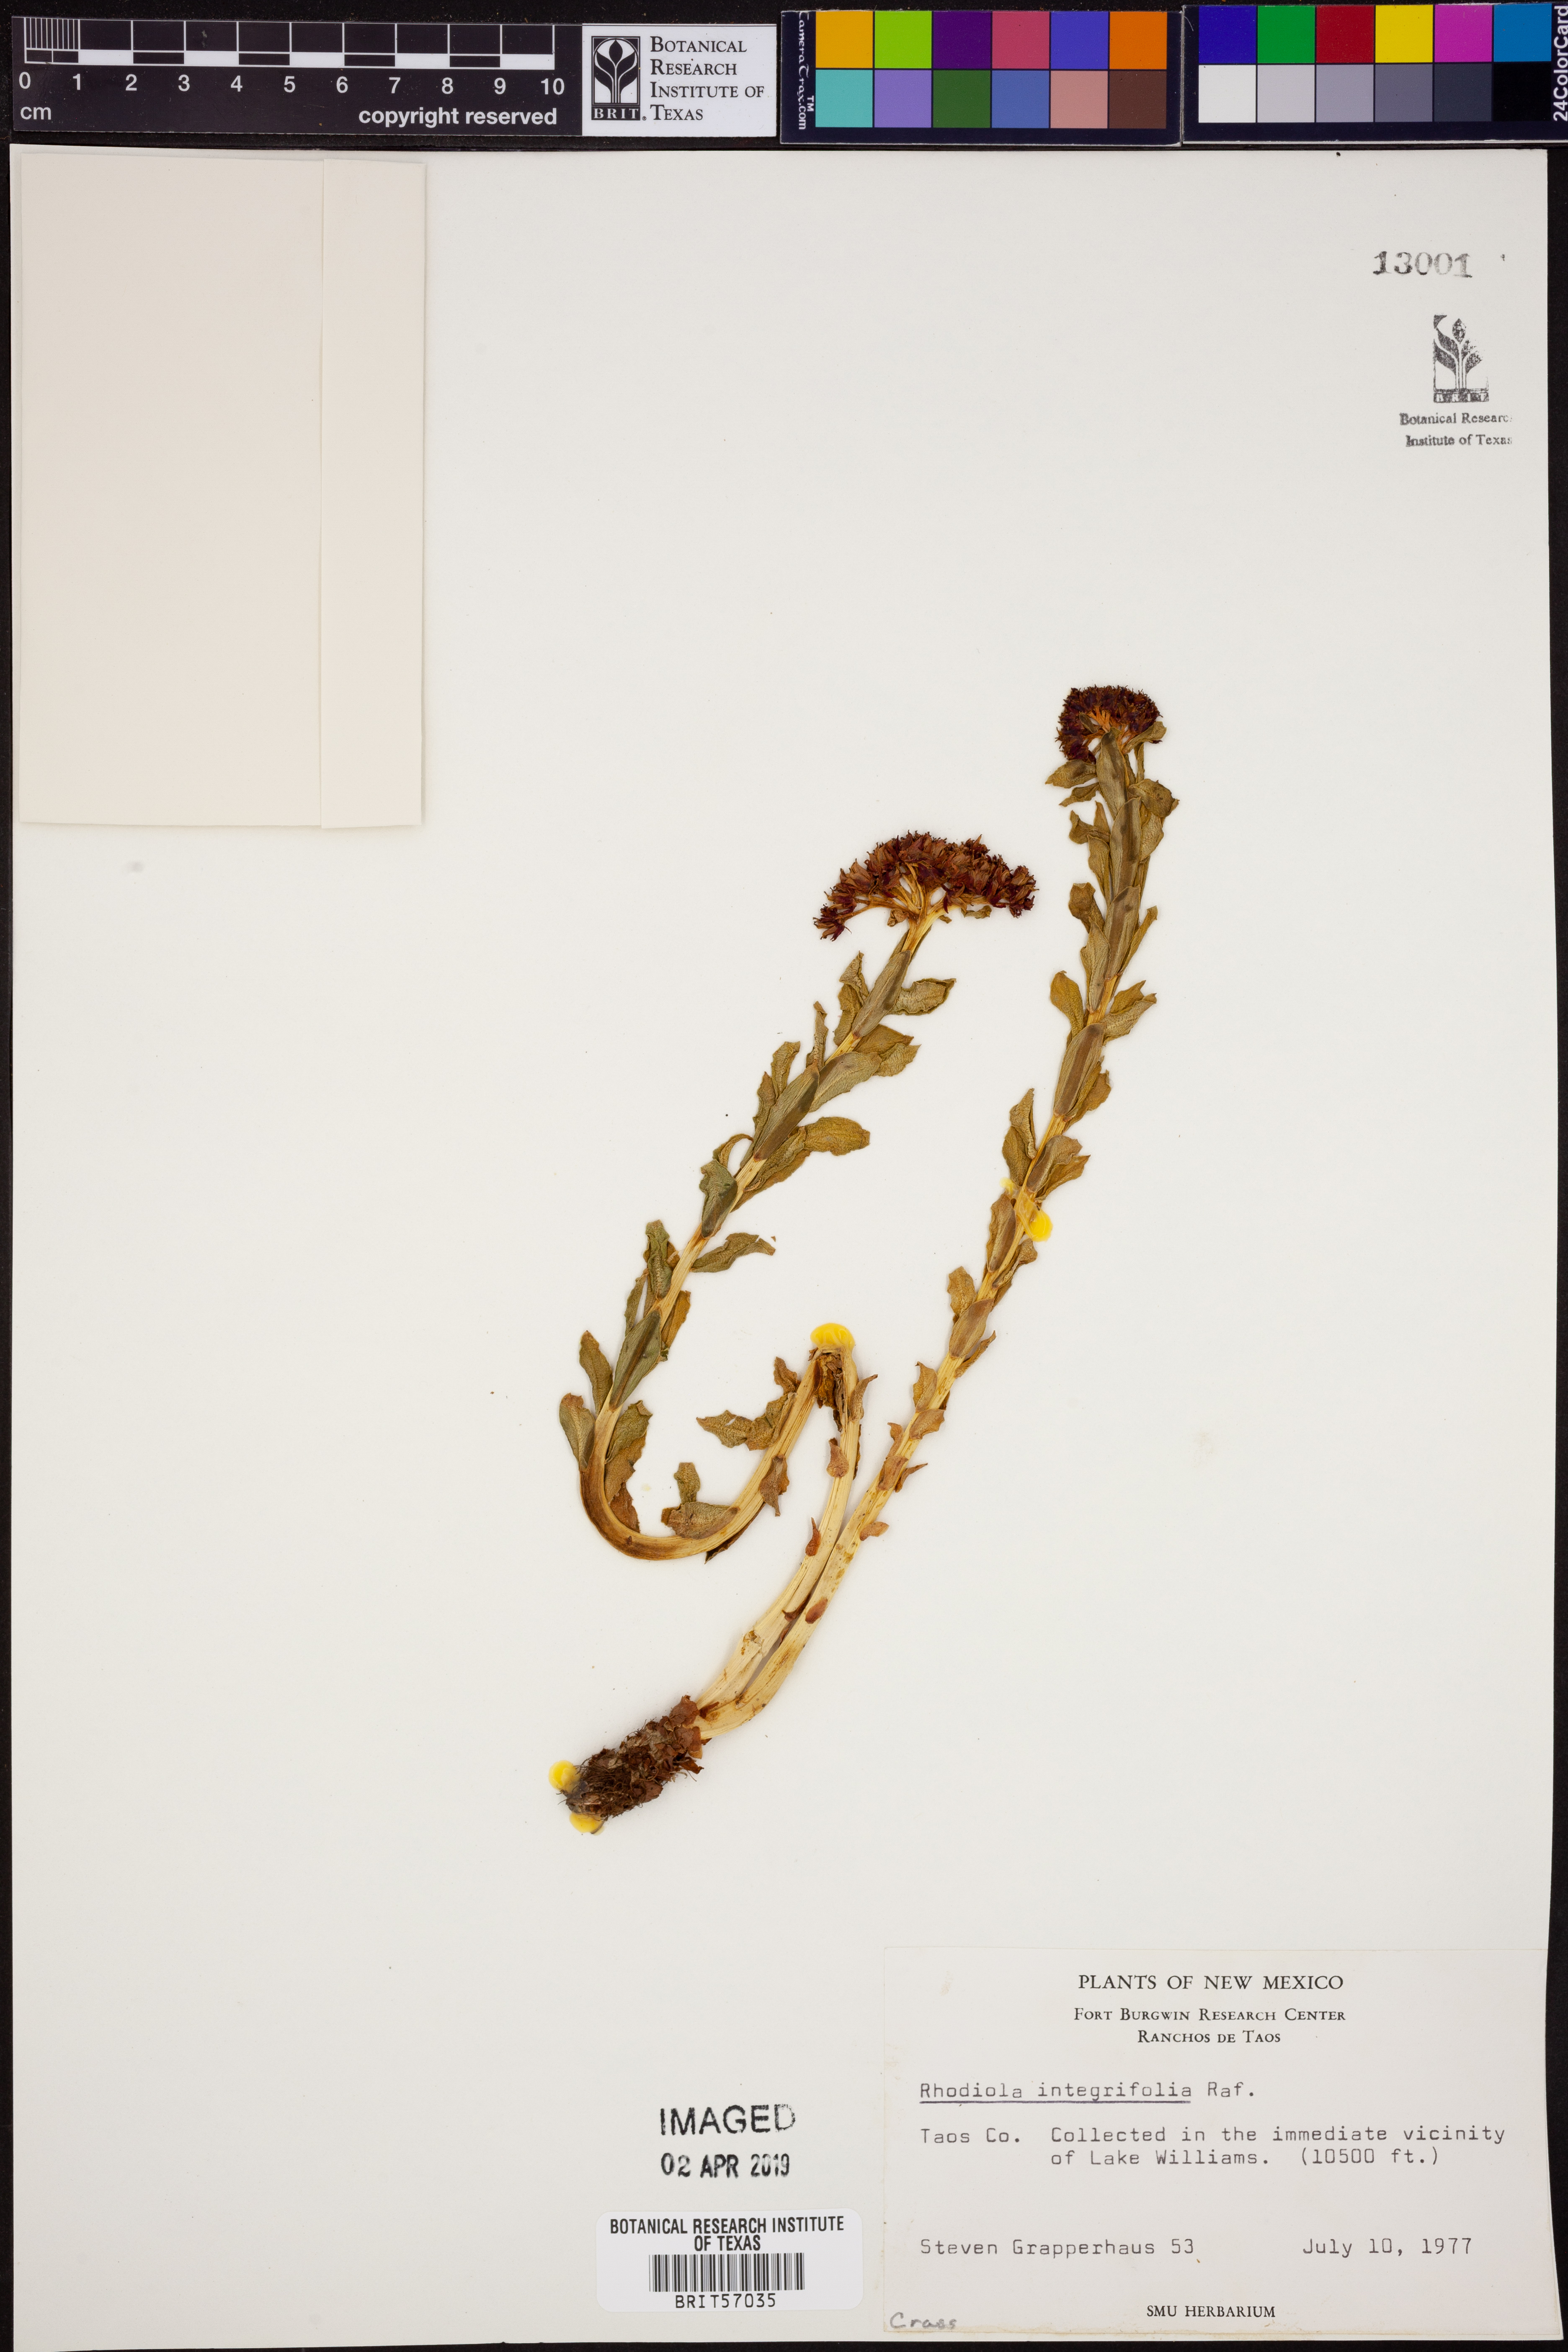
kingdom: Plantae
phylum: Tracheophyta
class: Magnoliopsida
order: Saxifragales
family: Crassulaceae
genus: Rhodiola
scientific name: Rhodiola integrifolia
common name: Western roseroot
